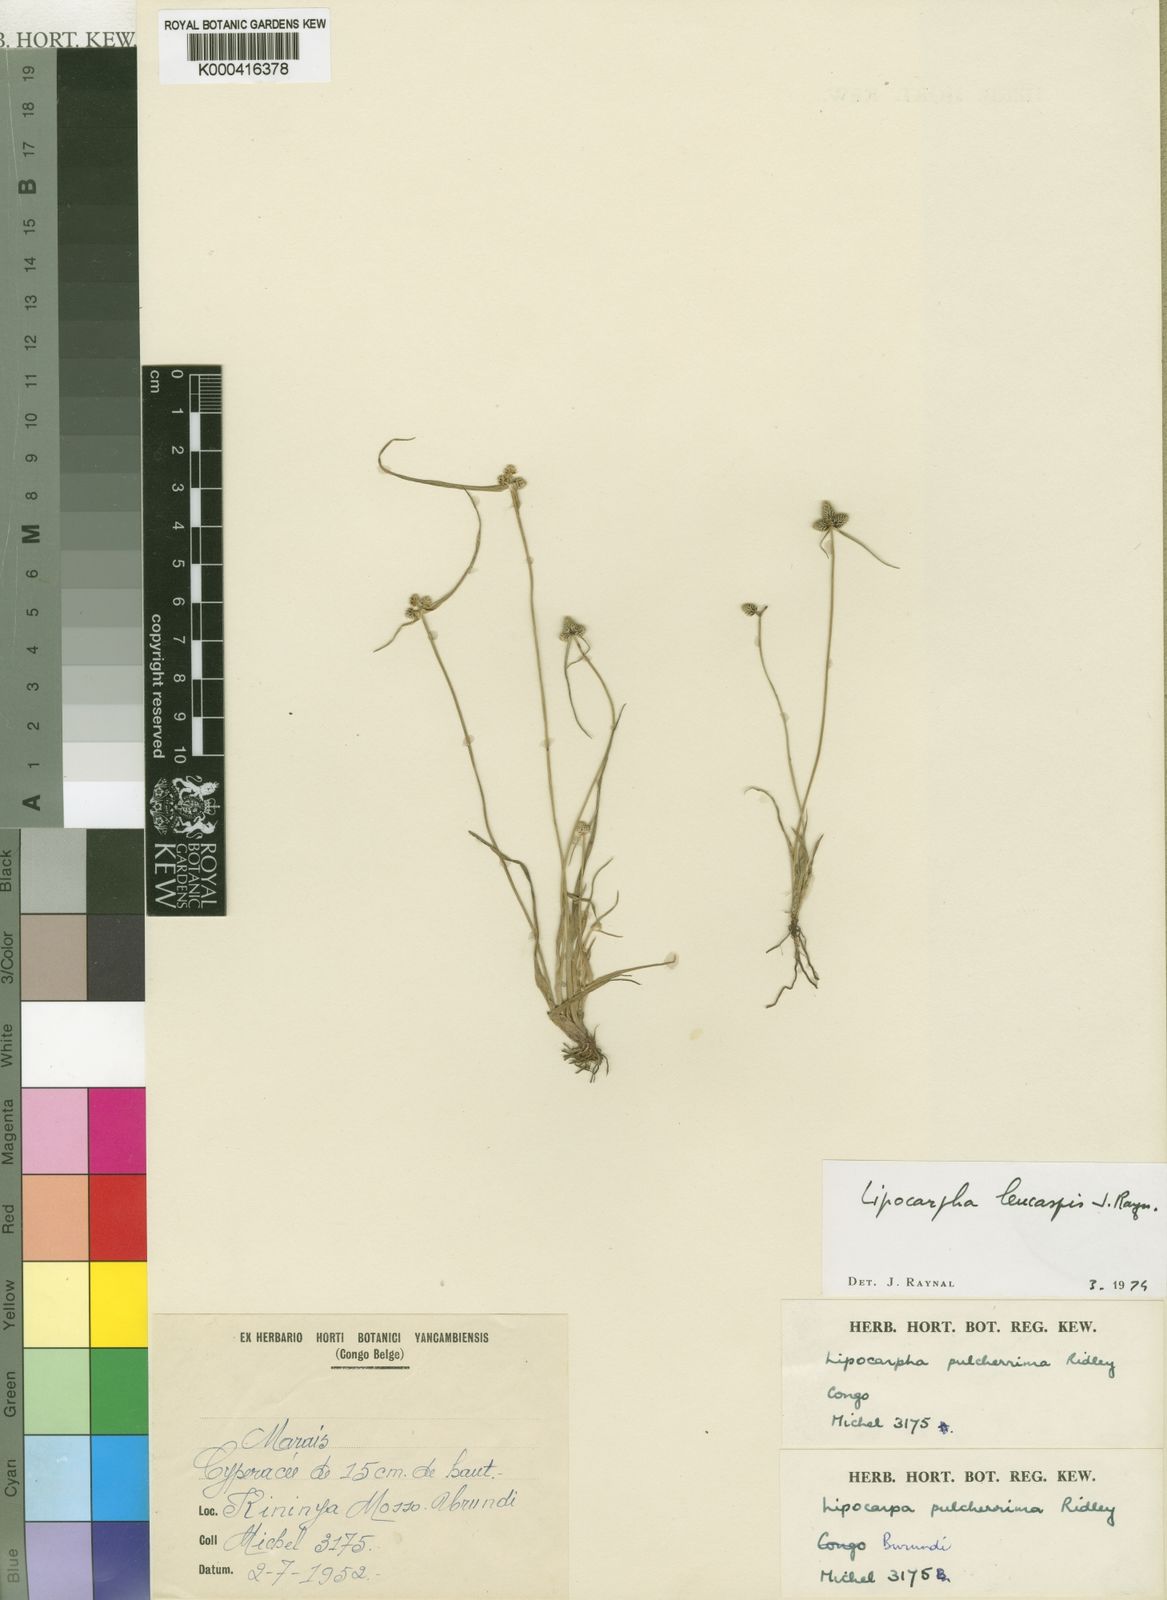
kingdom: Plantae
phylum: Tracheophyta
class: Liliopsida
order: Poales
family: Cyperaceae
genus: Cyperus
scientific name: Cyperus leucaspis
